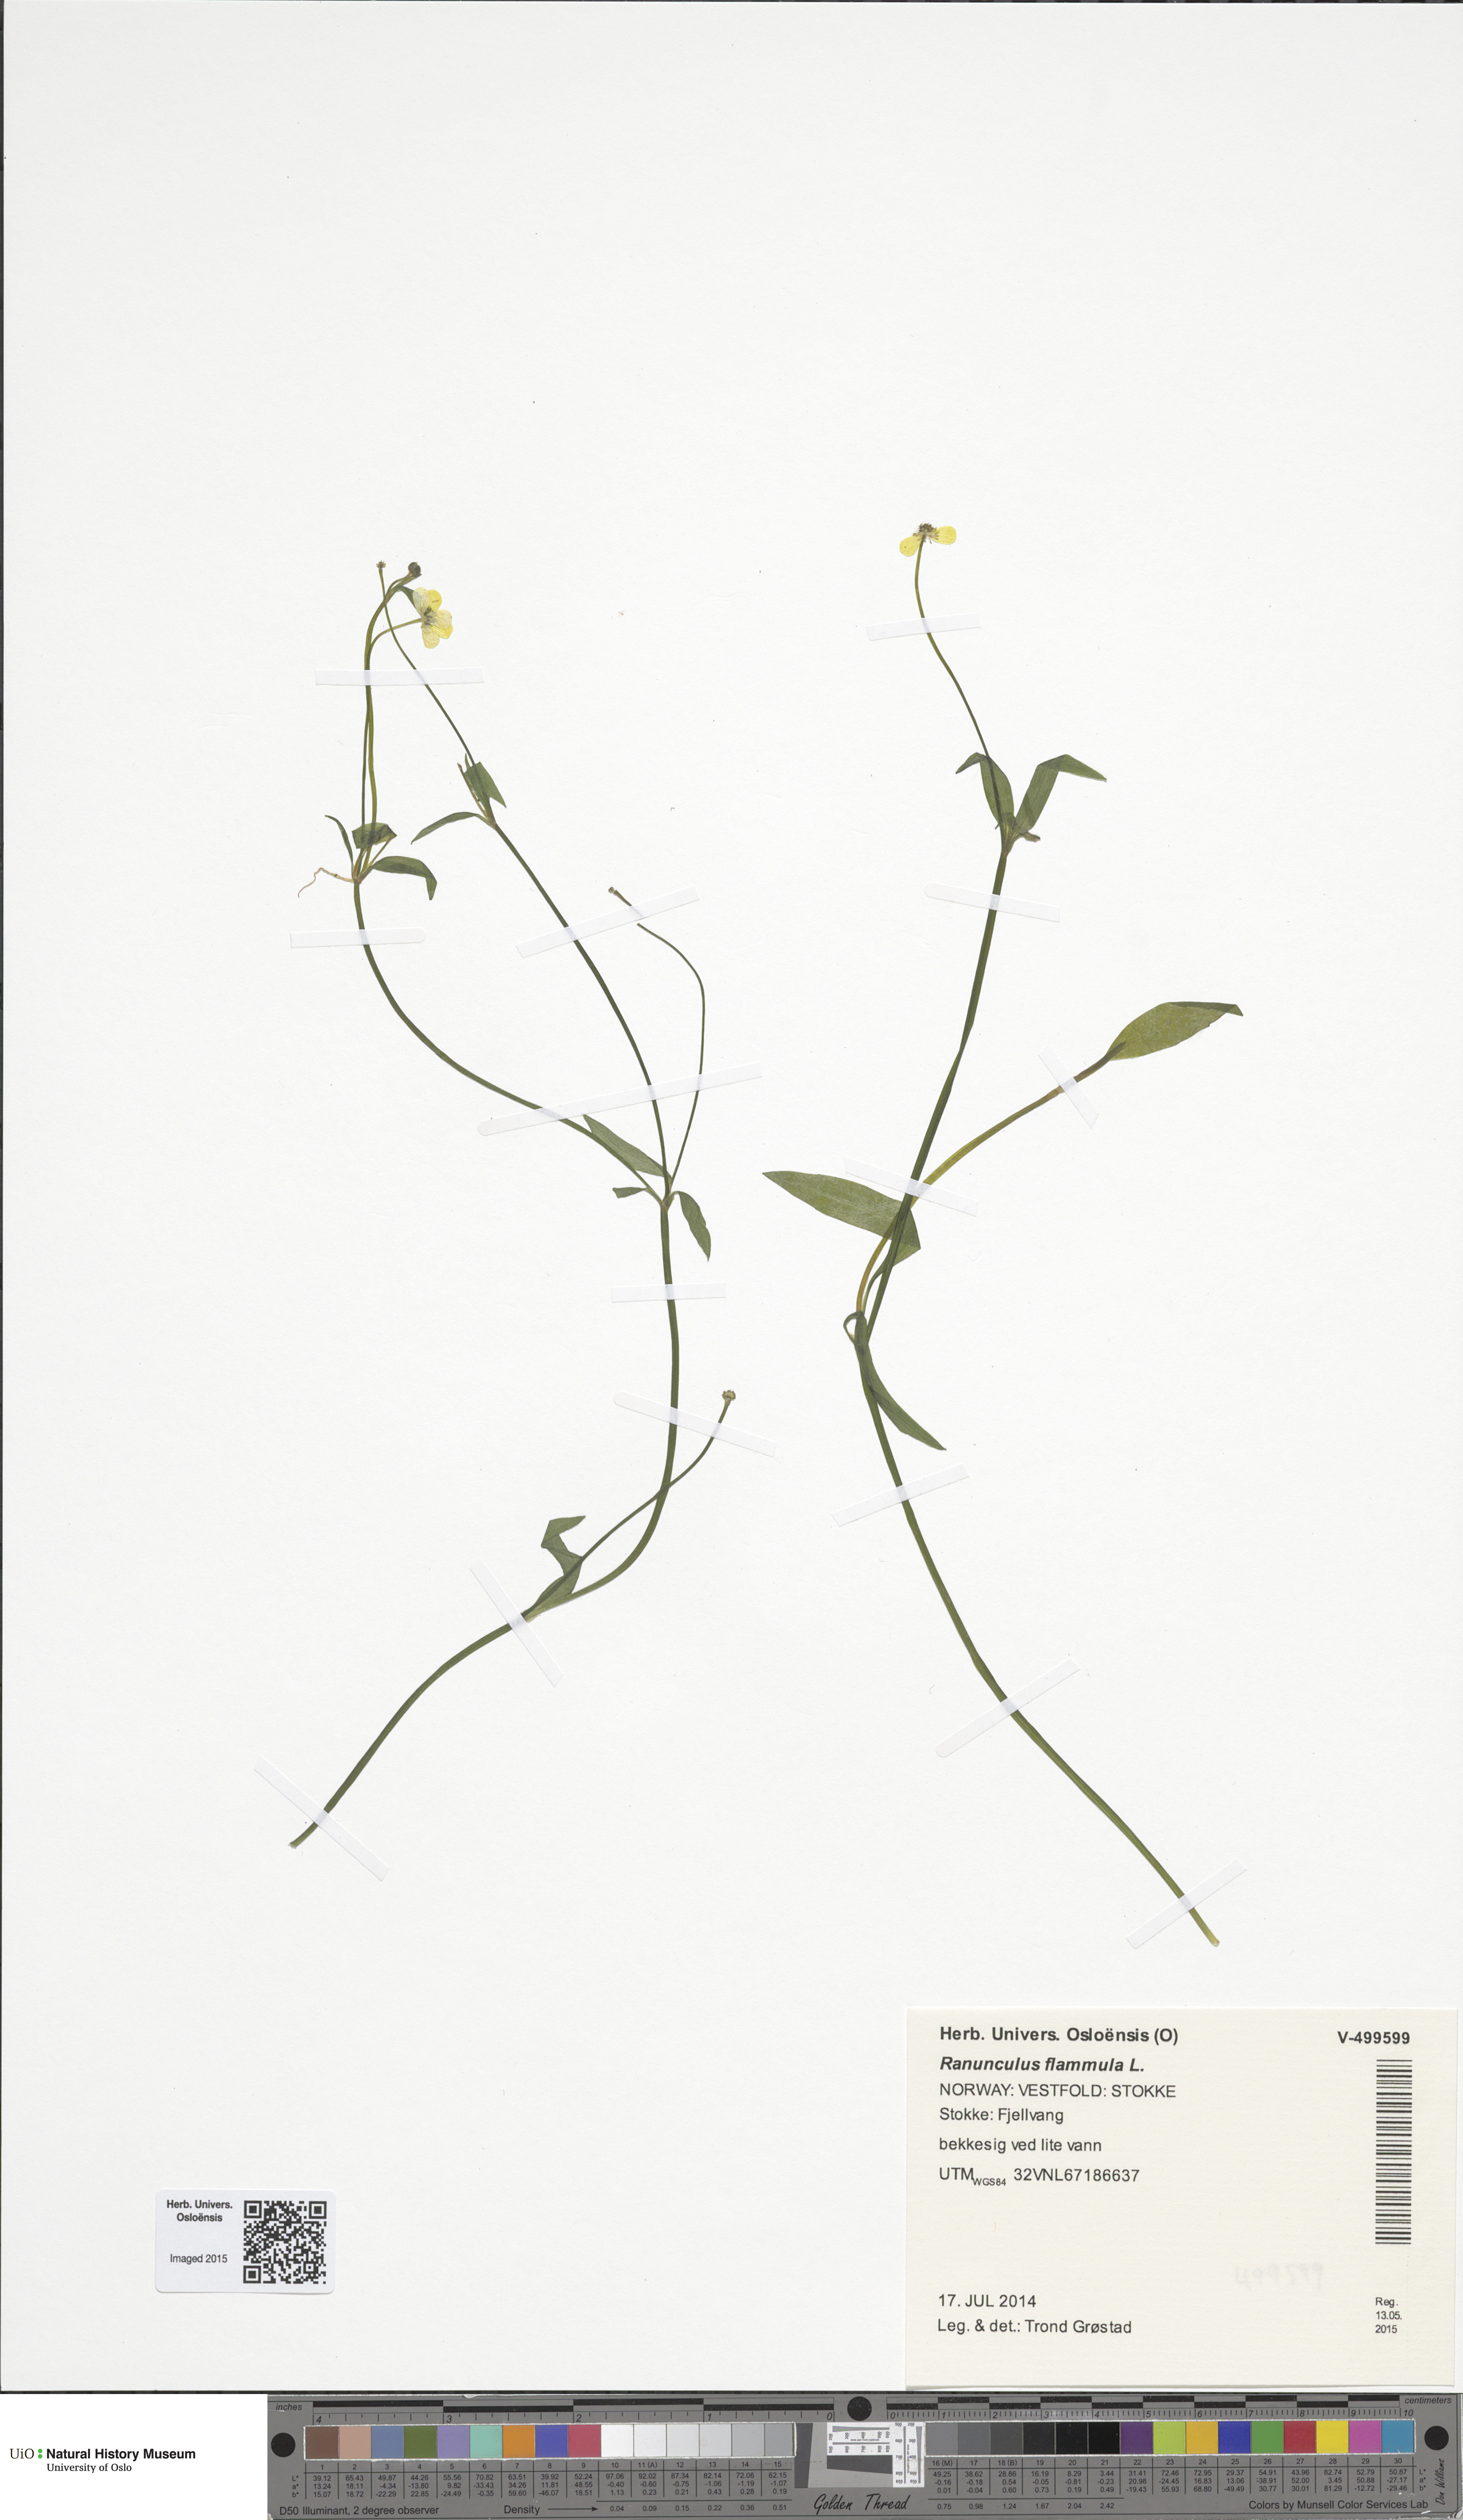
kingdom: Plantae
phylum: Tracheophyta
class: Magnoliopsida
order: Ranunculales
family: Ranunculaceae
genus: Ranunculus
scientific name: Ranunculus flammula
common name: Lesser spearwort
